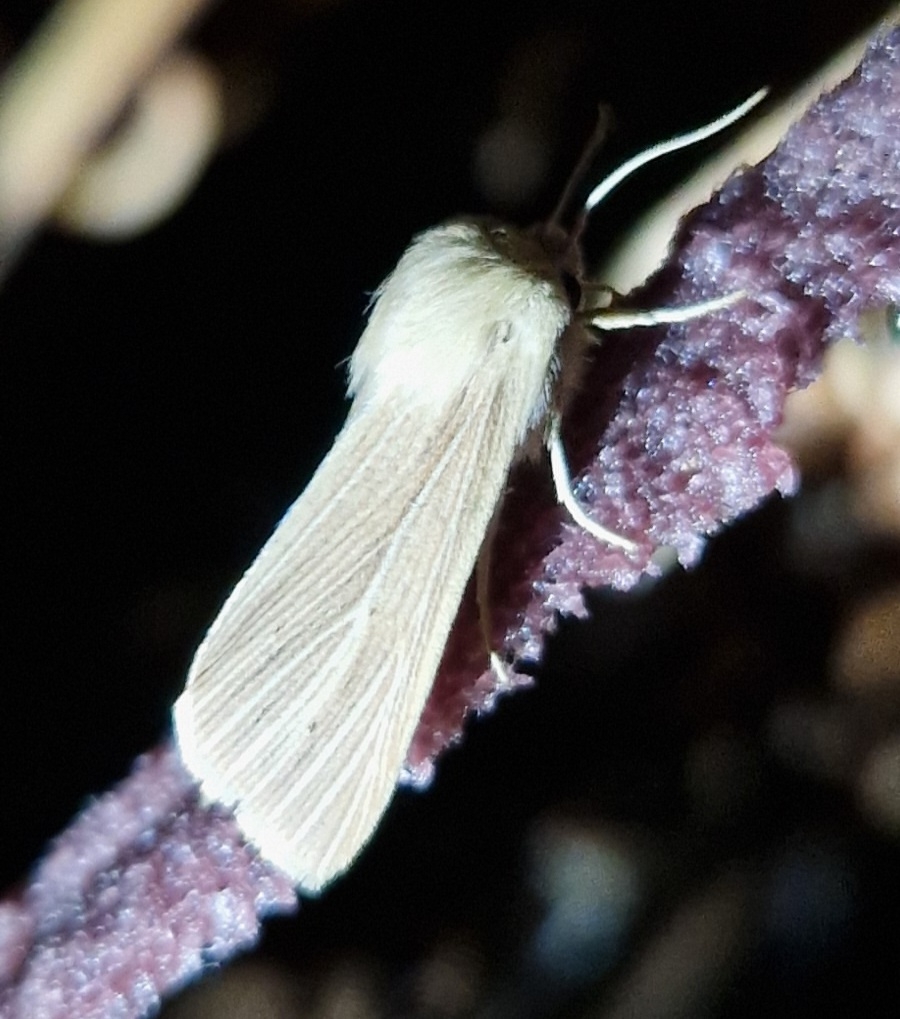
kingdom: Animalia
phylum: Arthropoda
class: Insecta
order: Lepidoptera
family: Noctuidae
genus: Mythimna
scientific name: Mythimna pallens
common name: Halmugle
